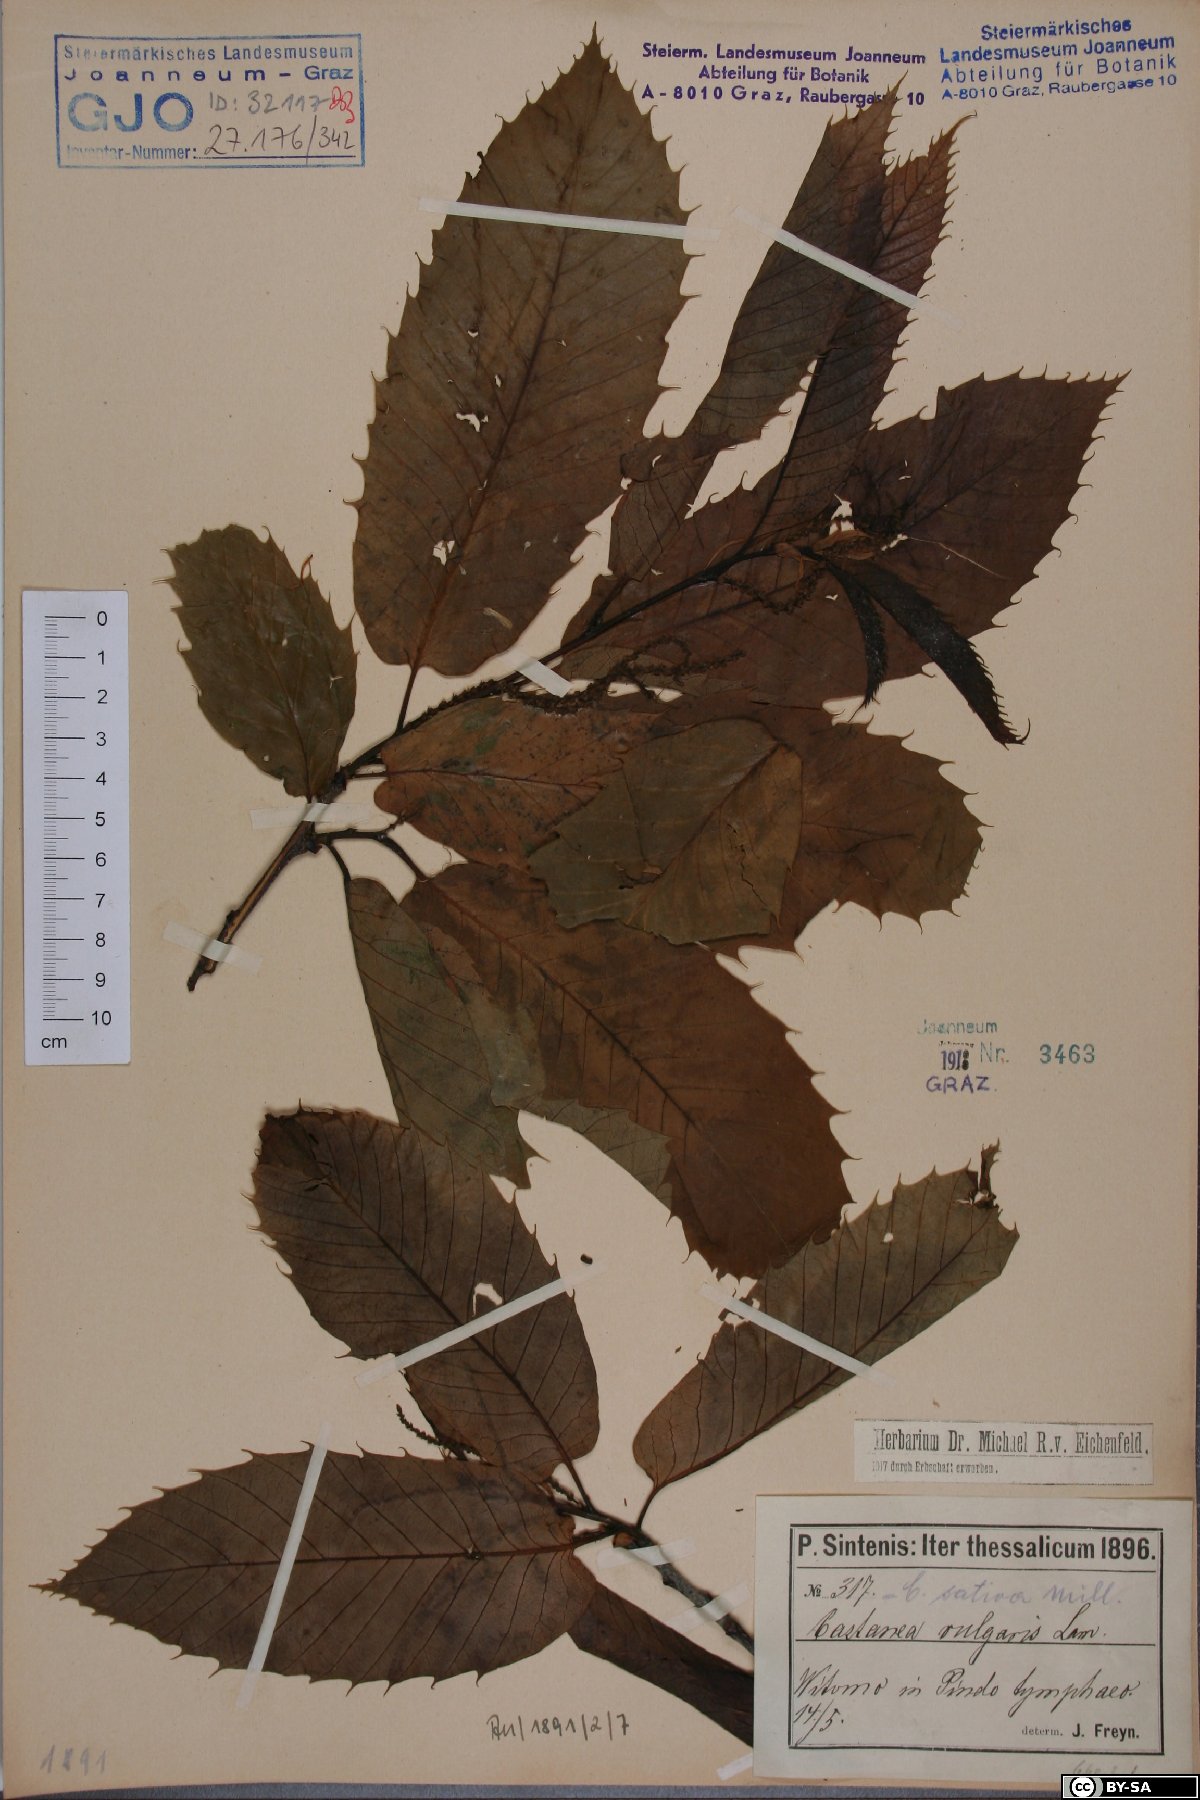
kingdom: Plantae
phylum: Tracheophyta
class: Magnoliopsida
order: Fagales
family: Fagaceae
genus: Castanea
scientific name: Castanea sativa
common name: Sweet chestnut
